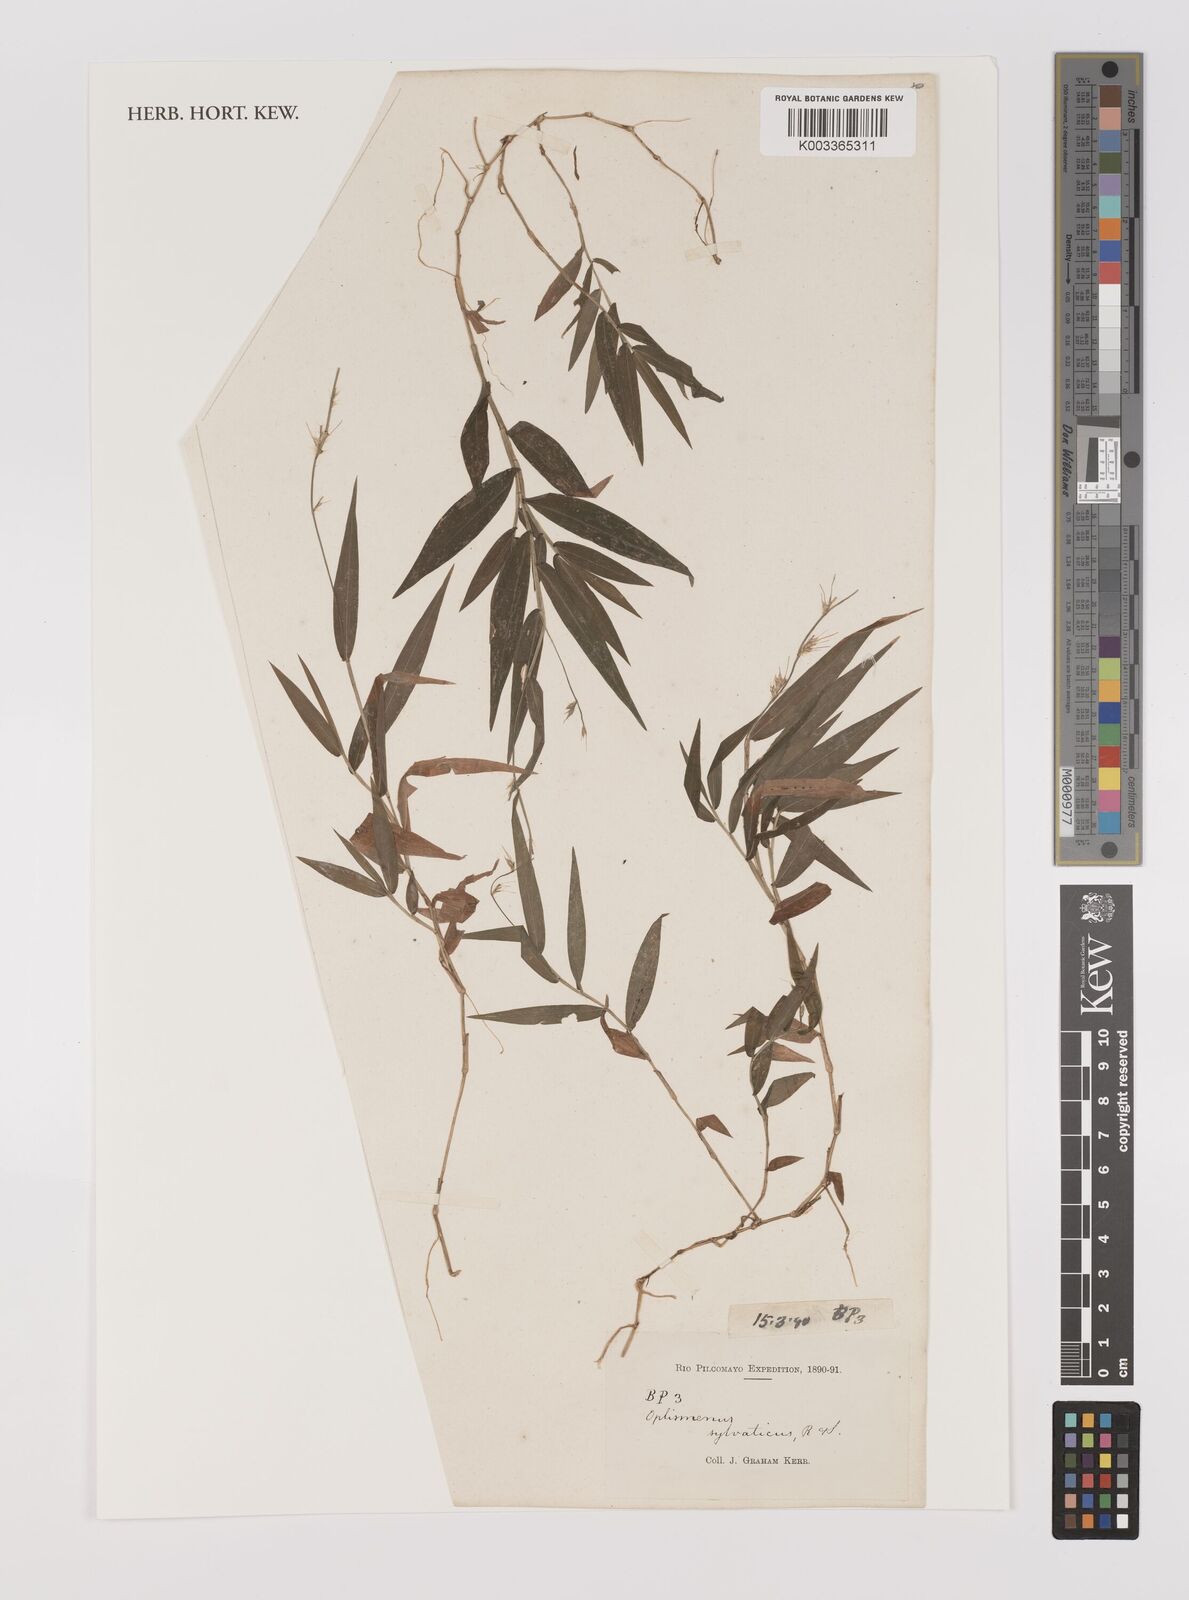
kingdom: Plantae
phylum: Tracheophyta
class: Liliopsida
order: Poales
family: Poaceae
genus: Oplismenus
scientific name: Oplismenus hirtellus
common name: Basketgrass
